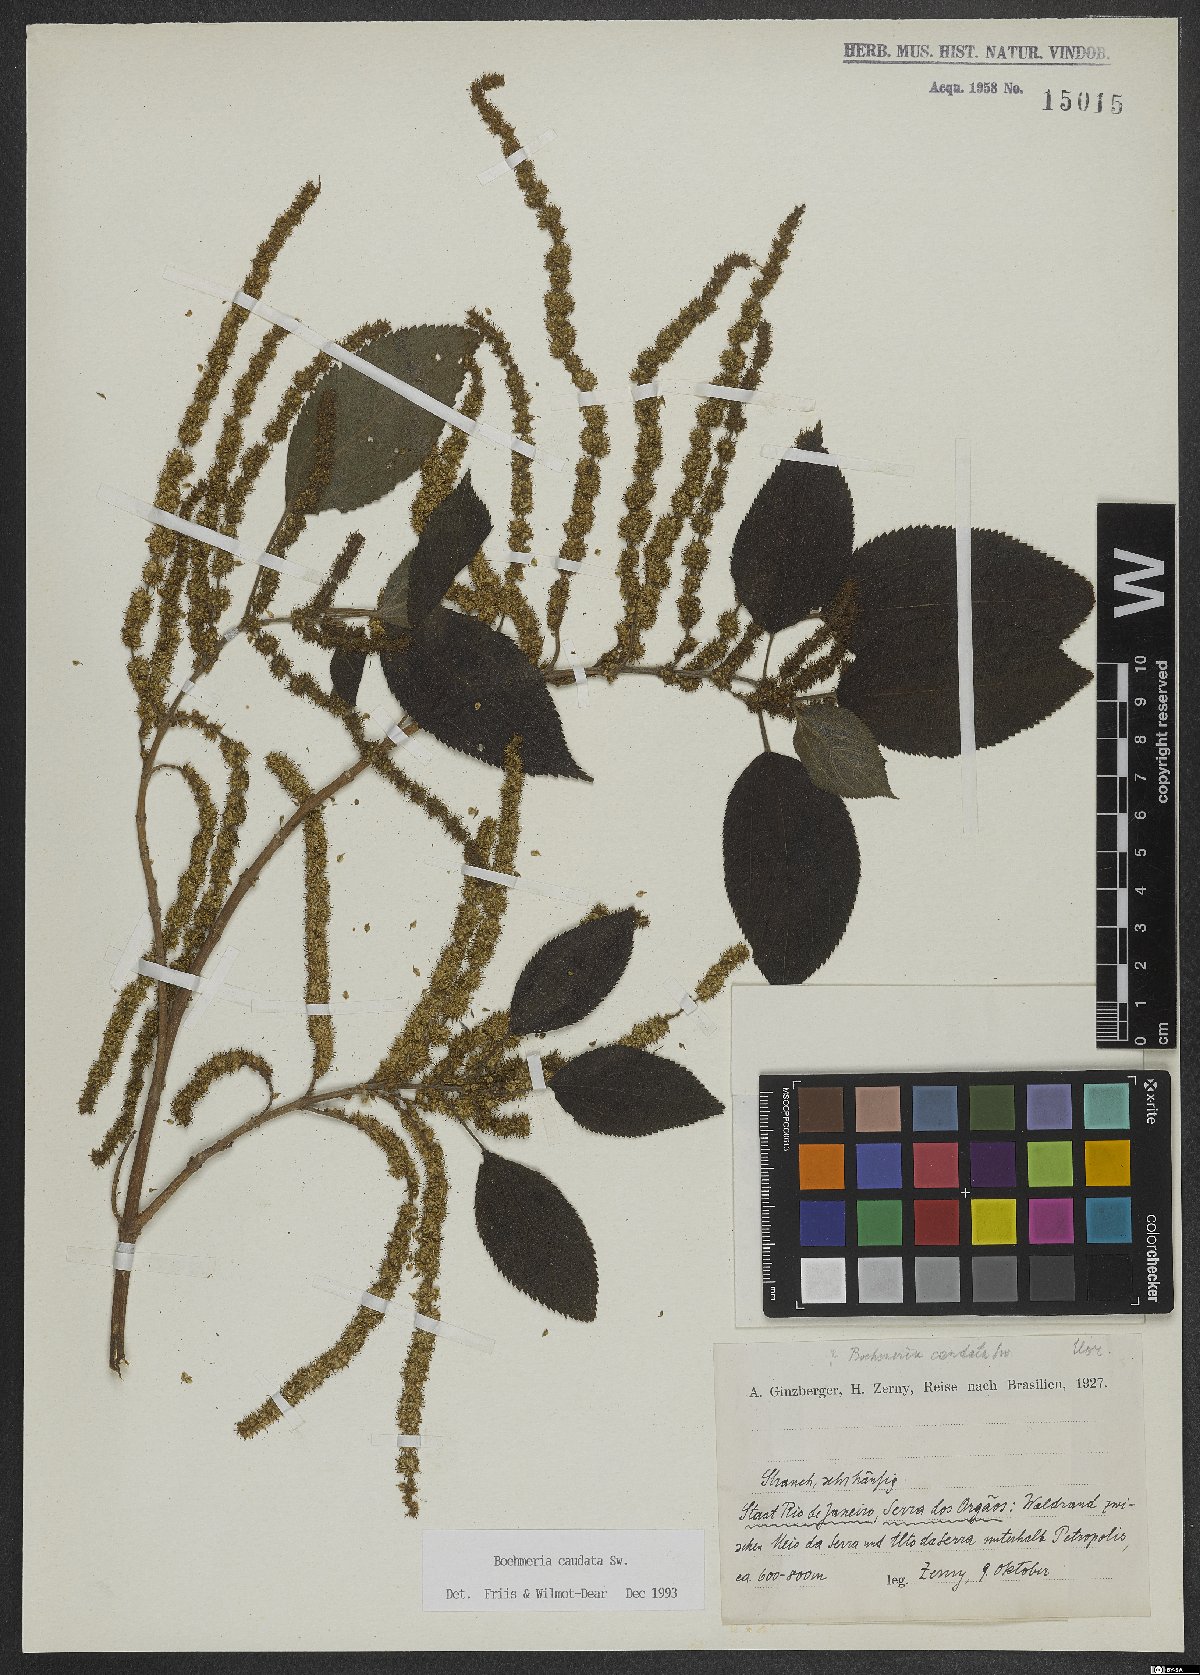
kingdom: Plantae
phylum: Tracheophyta
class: Magnoliopsida
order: Rosales
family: Urticaceae
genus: Boehmeria
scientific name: Boehmeria caudata
